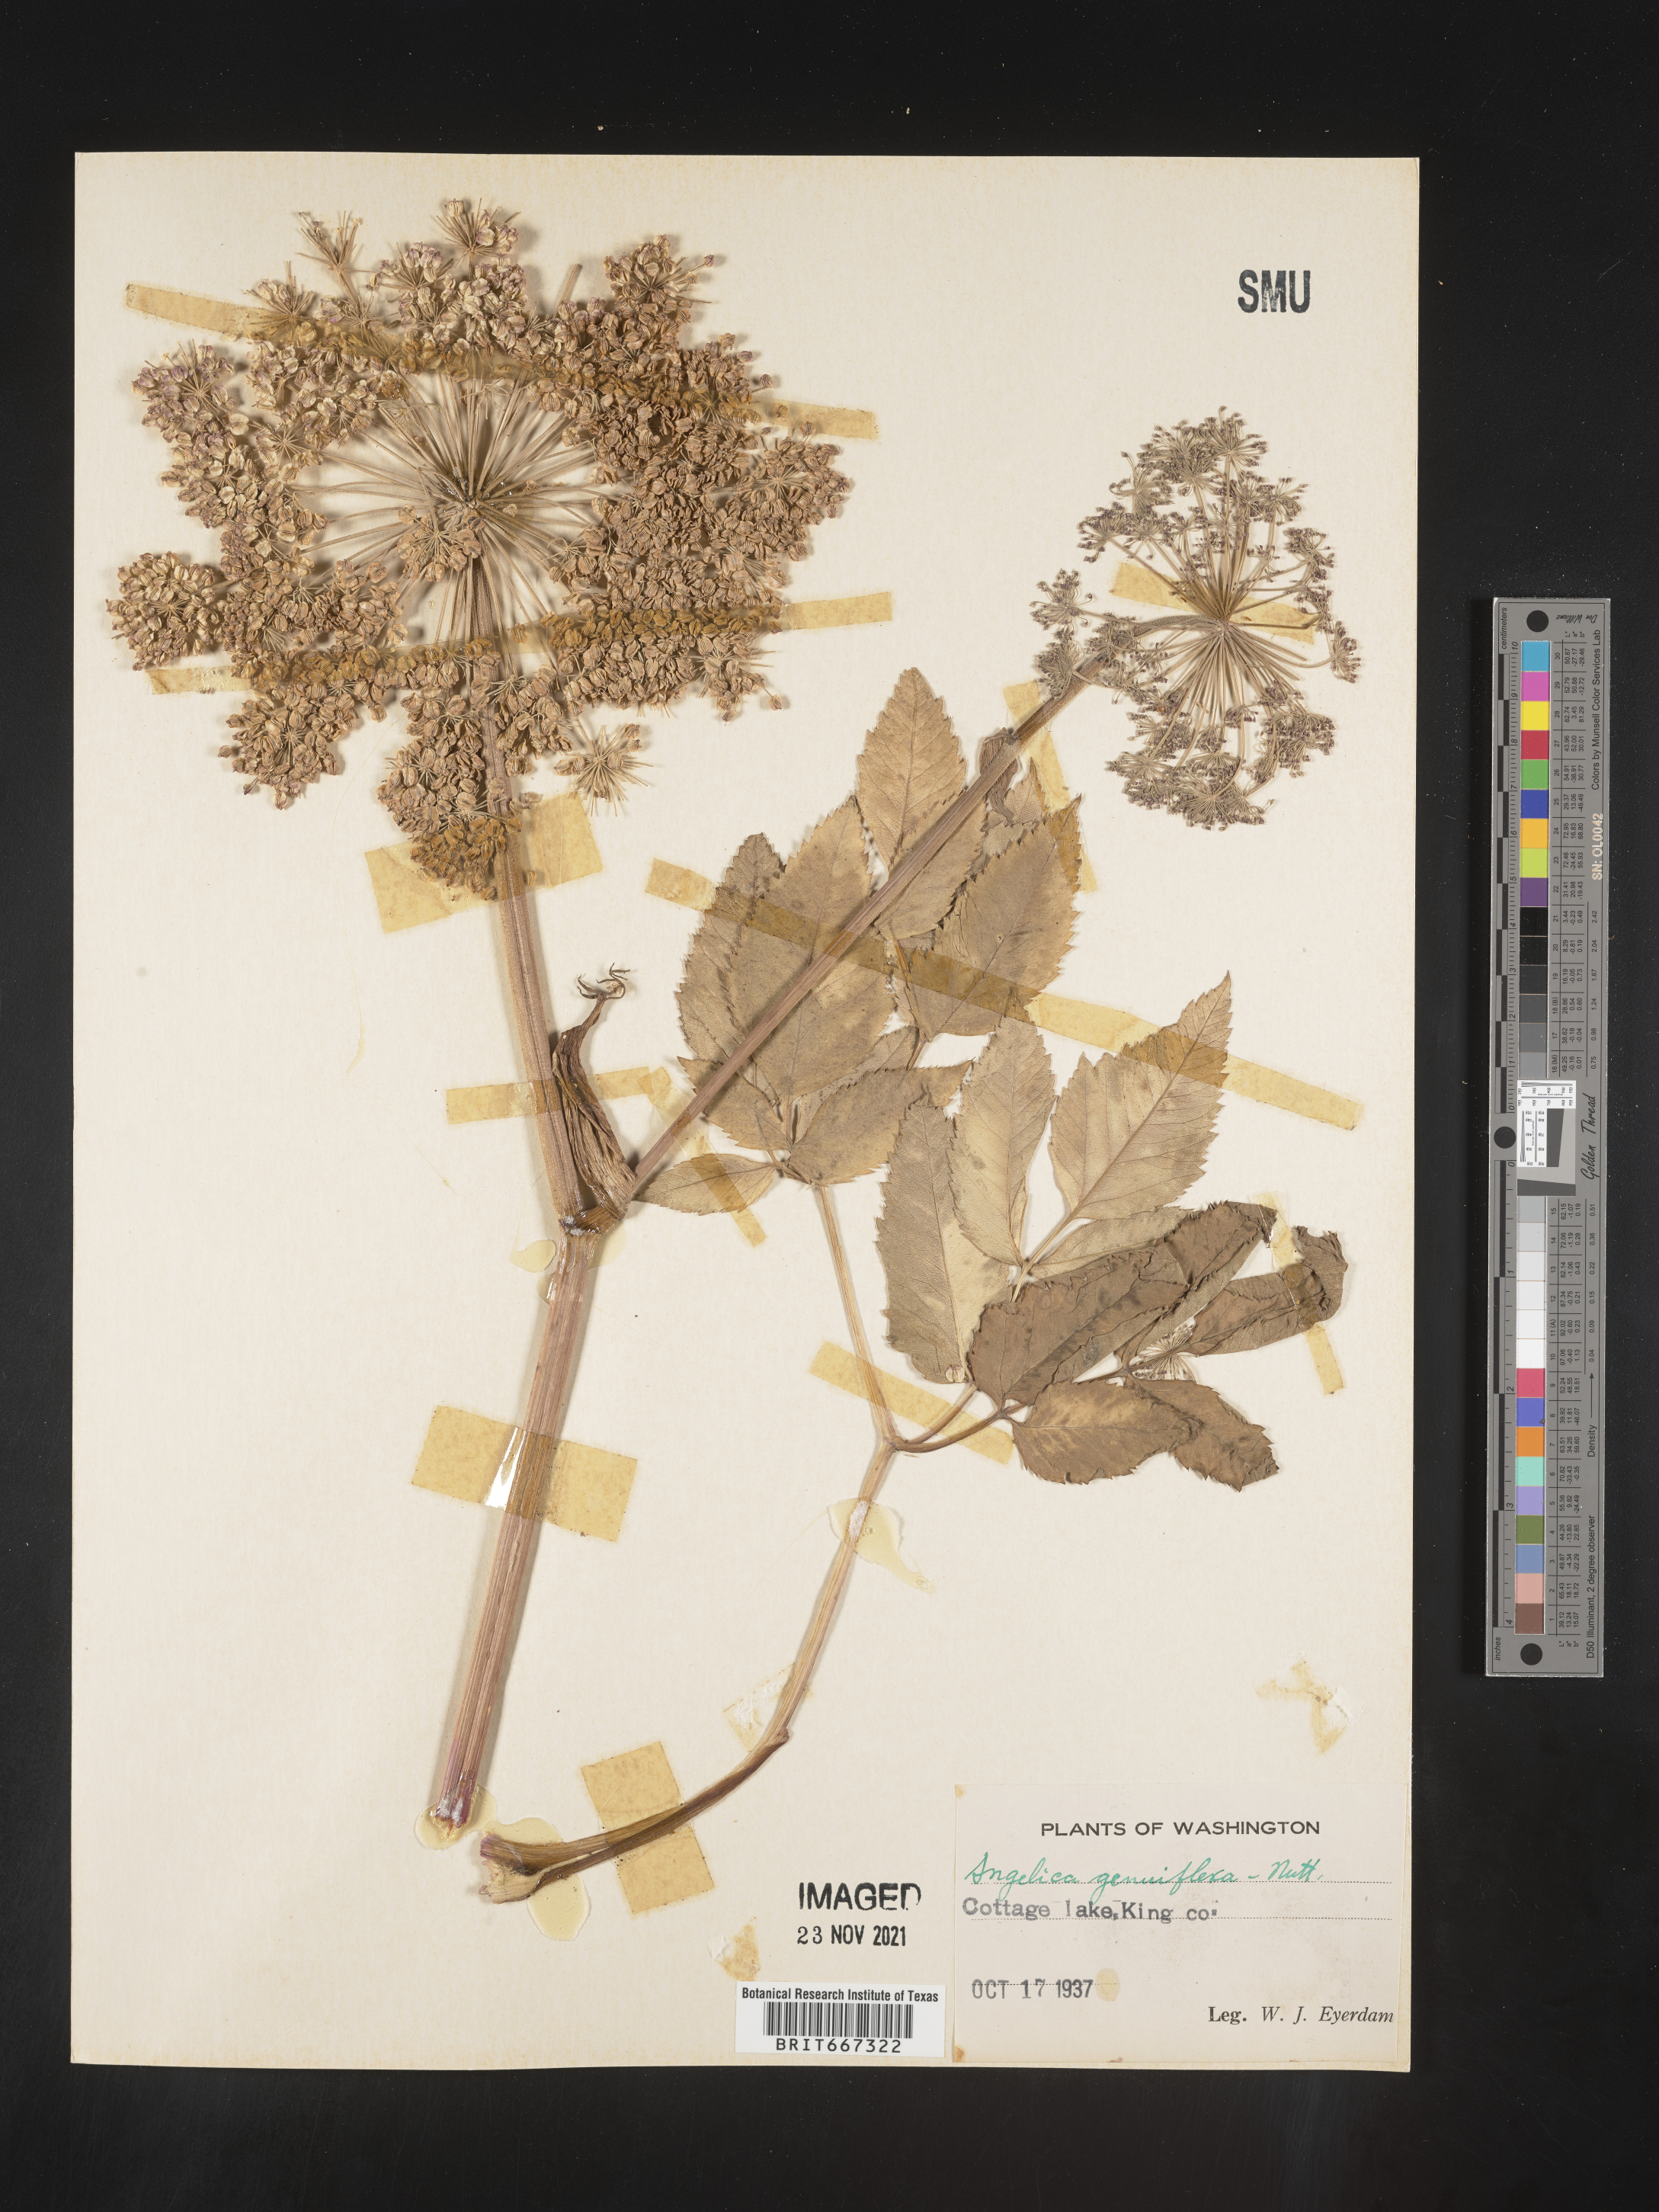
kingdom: Plantae
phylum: Tracheophyta
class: Magnoliopsida
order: Apiales
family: Apiaceae
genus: Angelica
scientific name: Angelica
